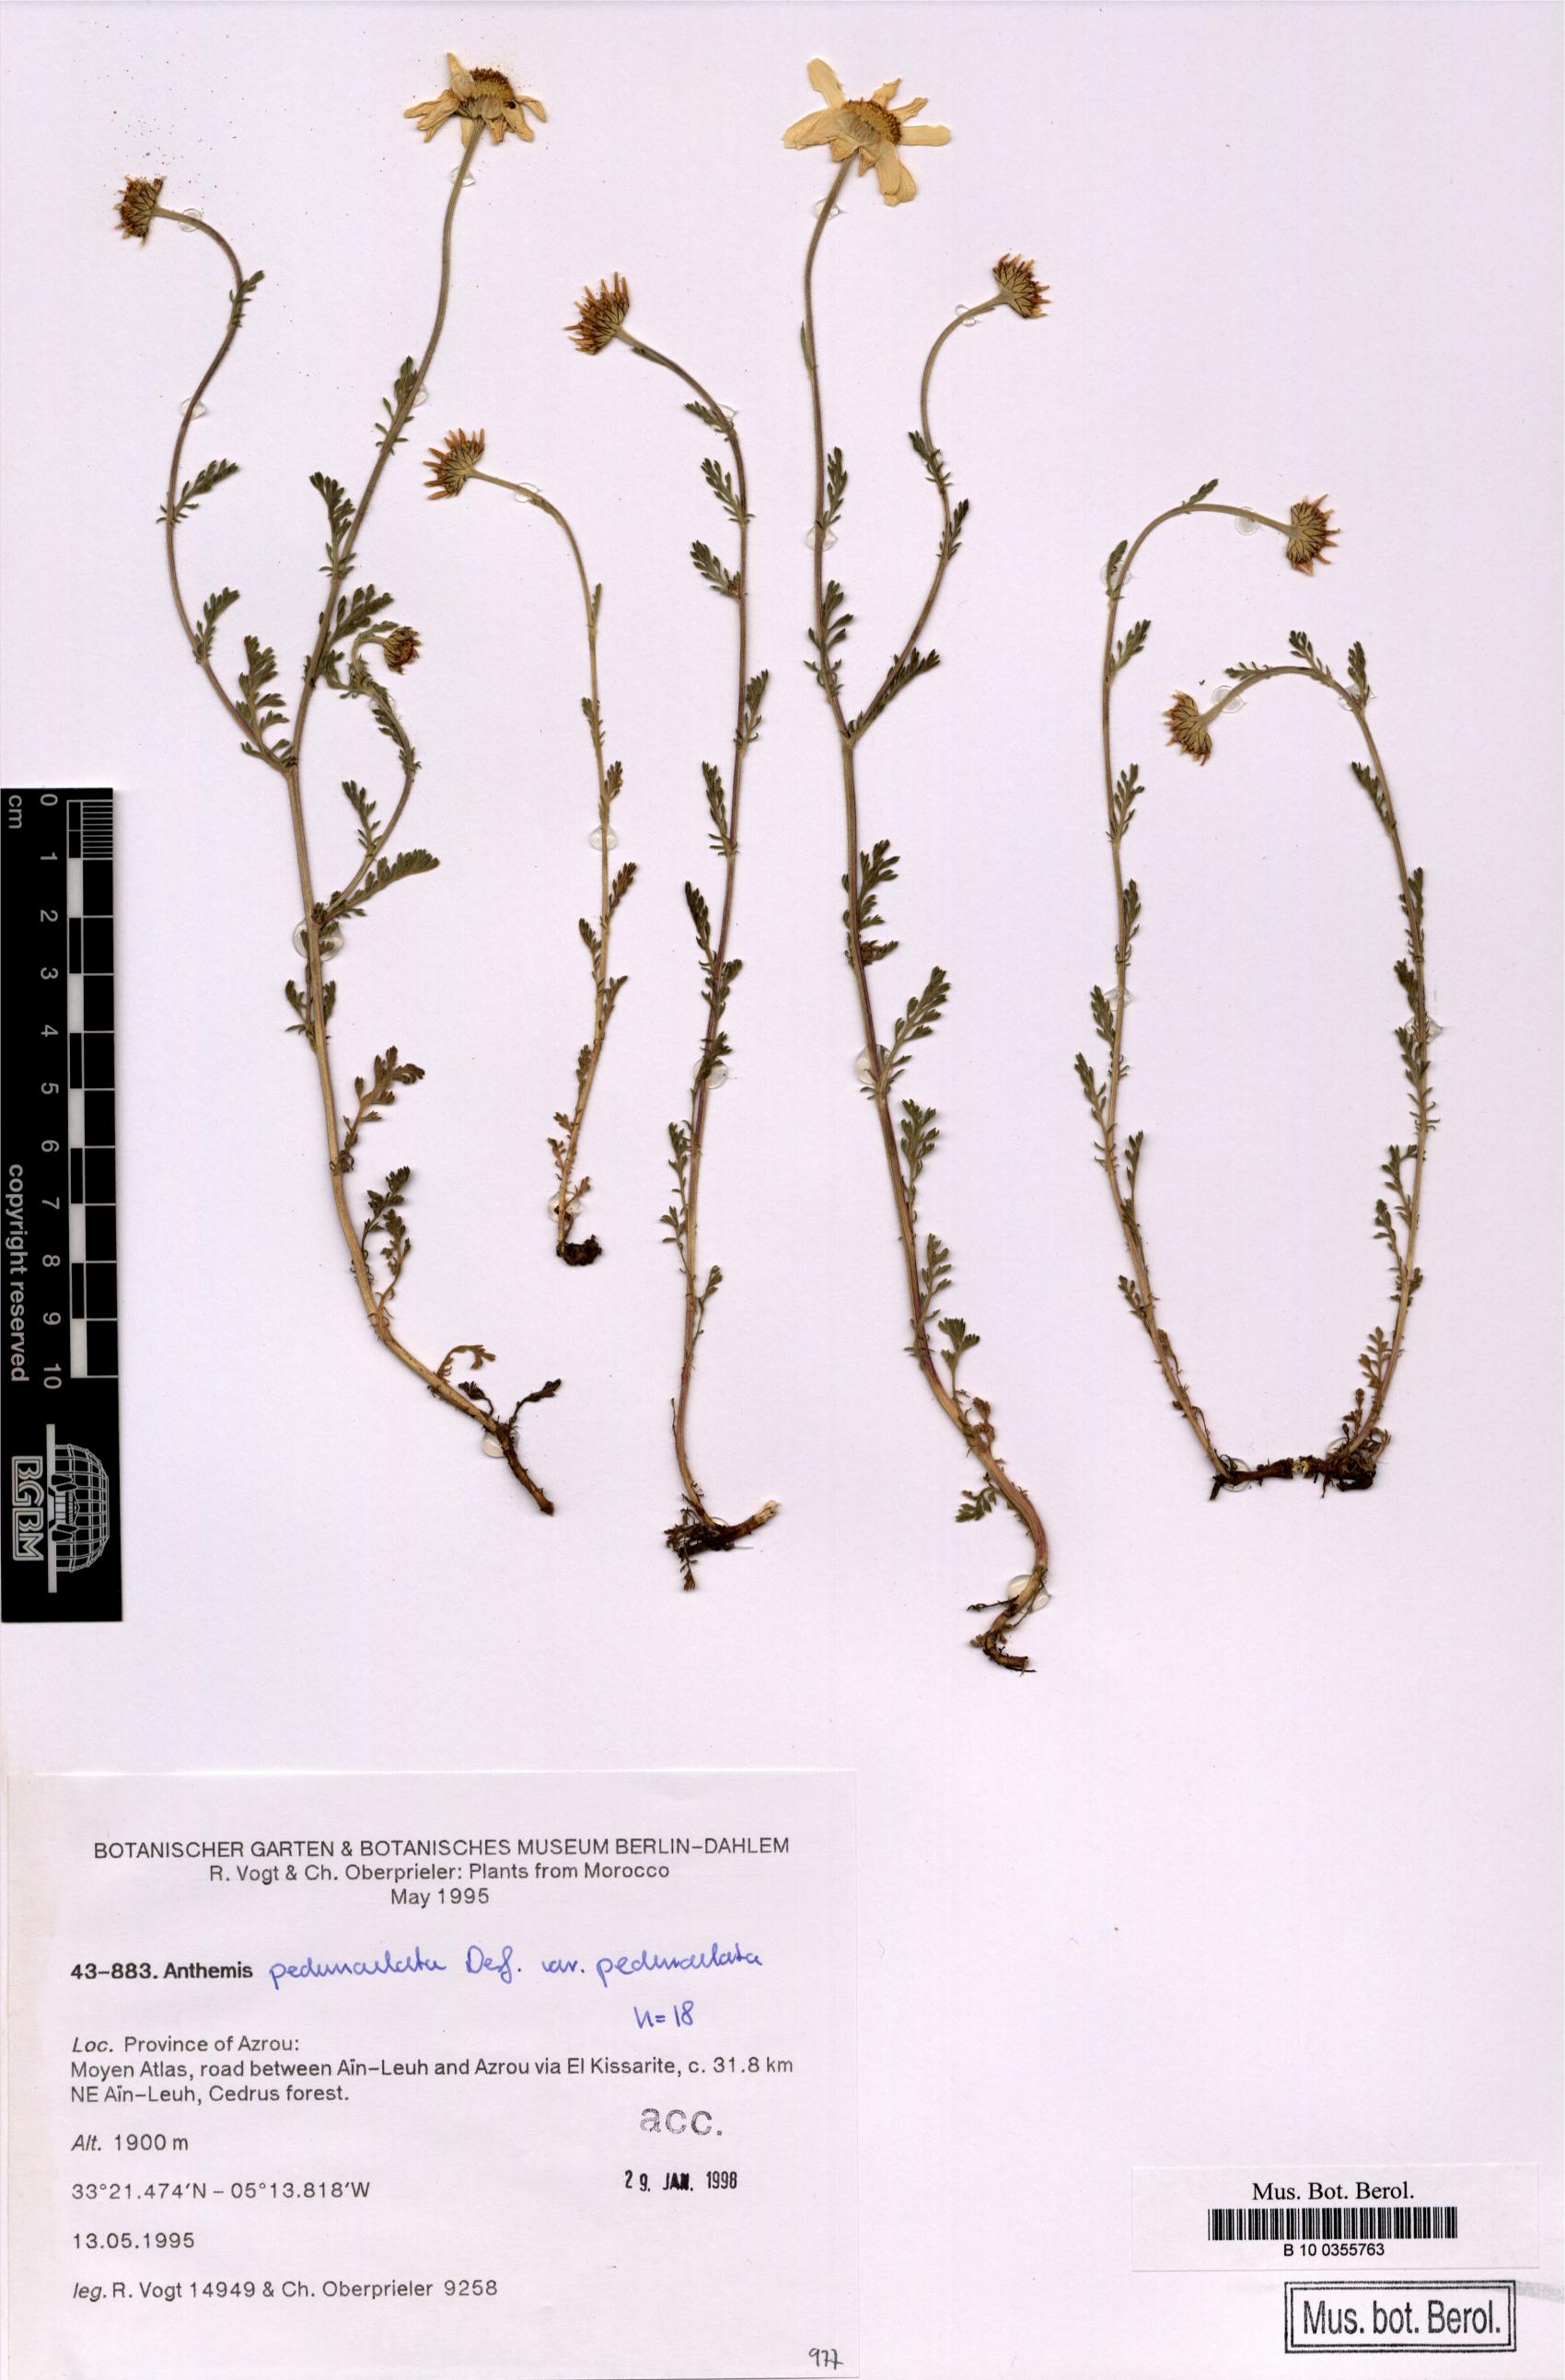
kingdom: Plantae
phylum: Tracheophyta
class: Magnoliopsida
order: Asterales
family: Asteraceae
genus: Anthemis
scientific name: Anthemis pedunculata
